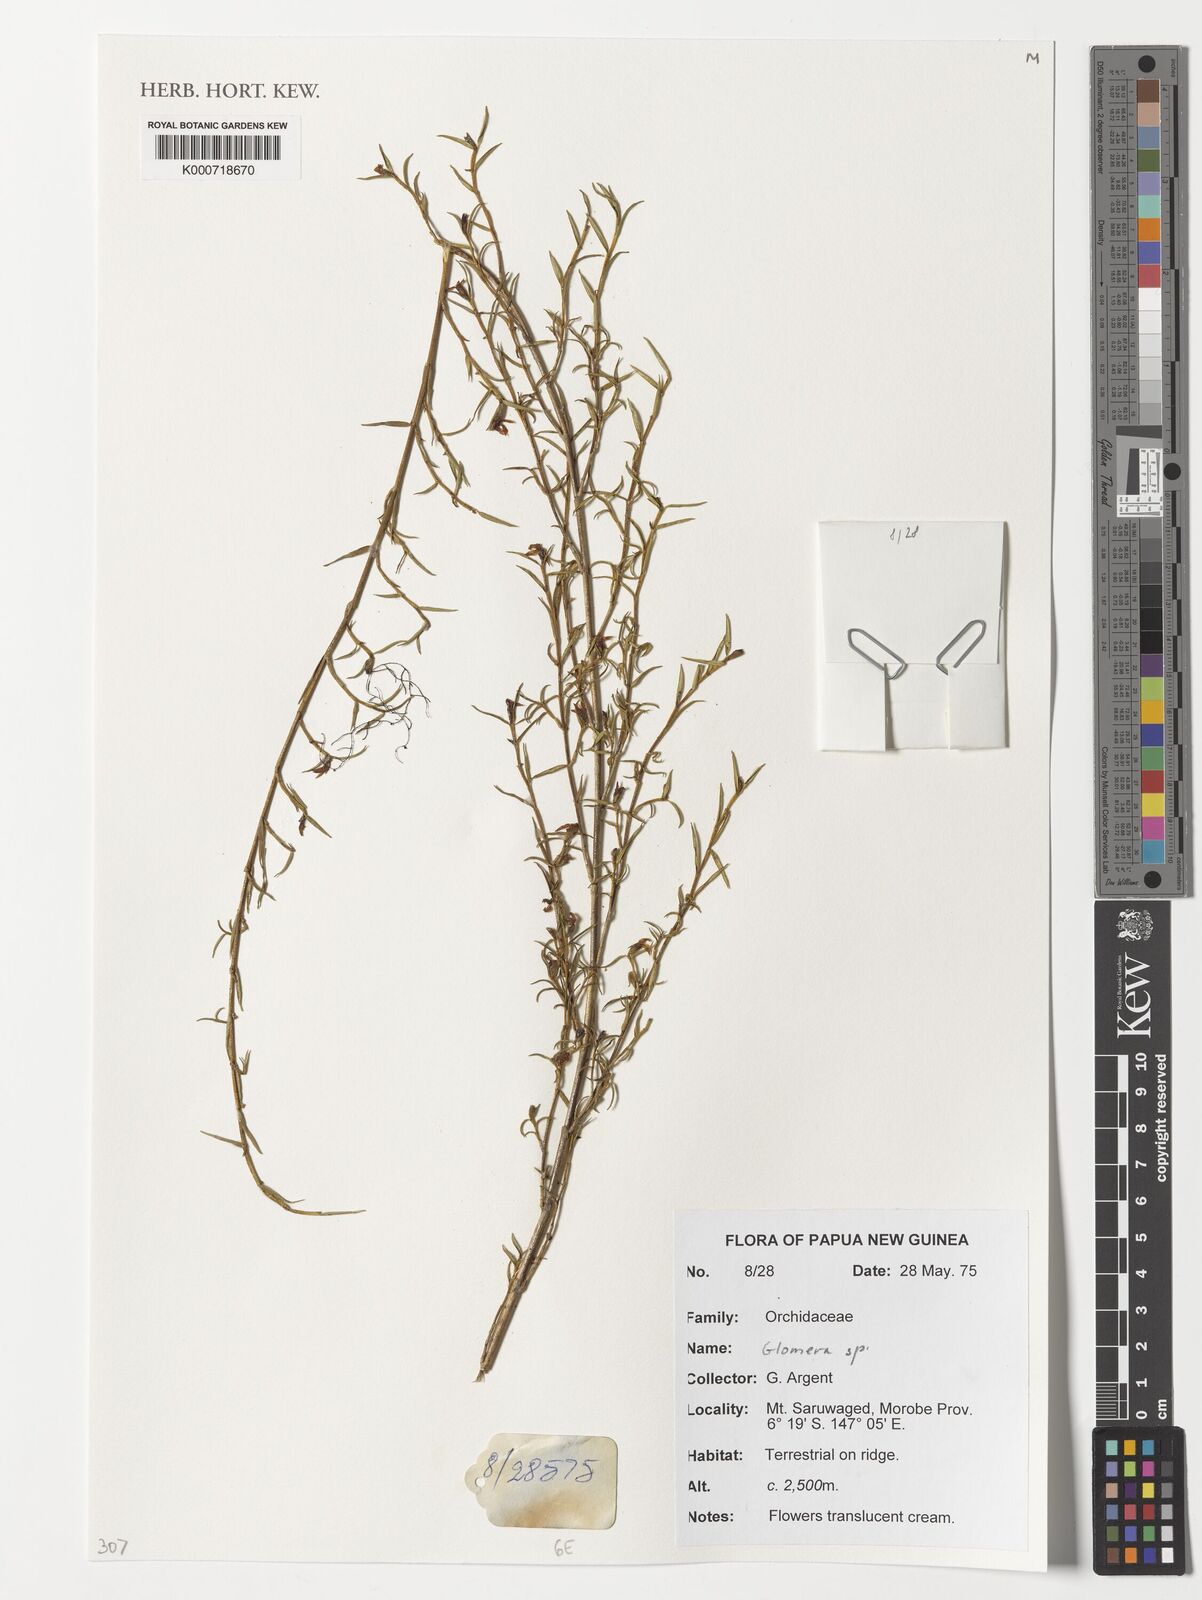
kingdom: Plantae
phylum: Tracheophyta
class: Liliopsida
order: Asparagales
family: Orchidaceae
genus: Glomera
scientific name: Glomera
